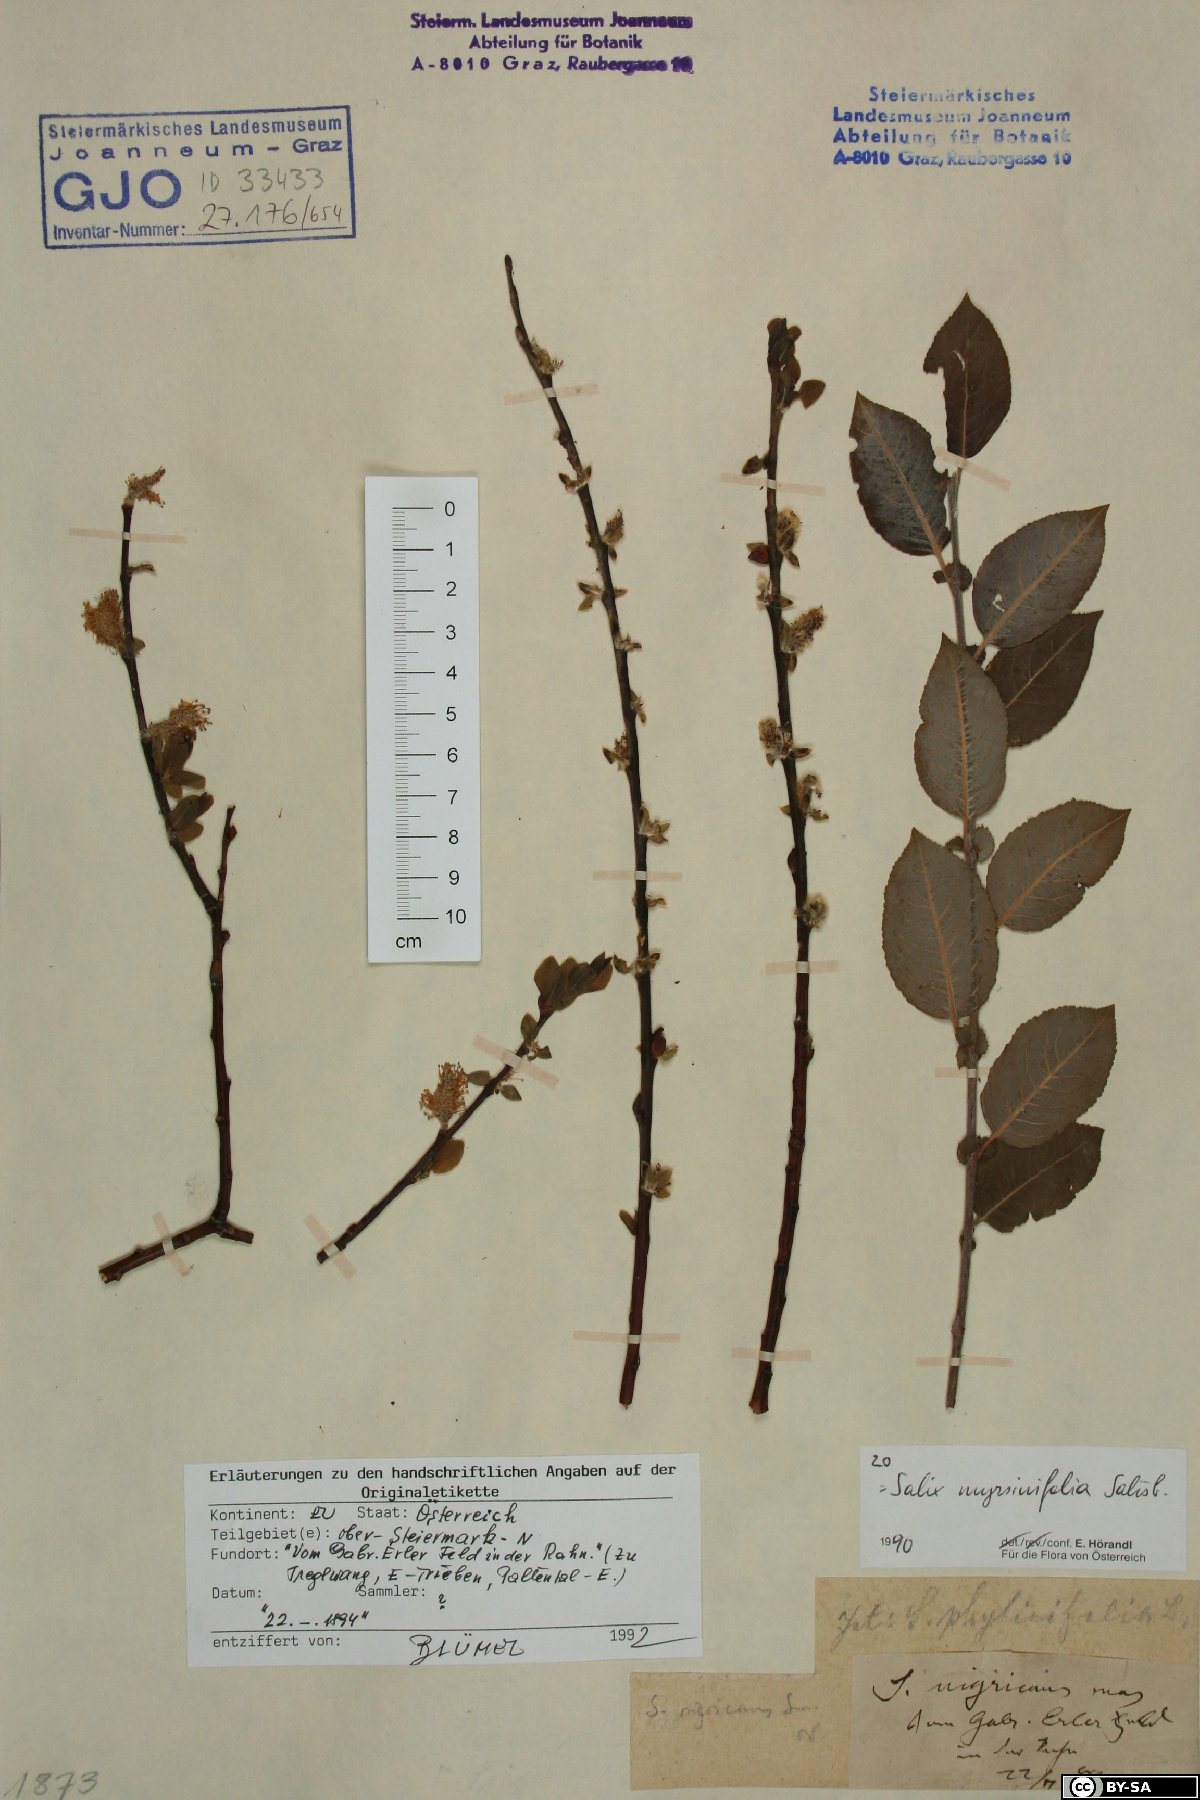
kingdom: Plantae
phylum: Tracheophyta
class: Magnoliopsida
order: Malpighiales
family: Salicaceae
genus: Salix
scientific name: Salix myrsinifolia
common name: Dark-leaved willow
